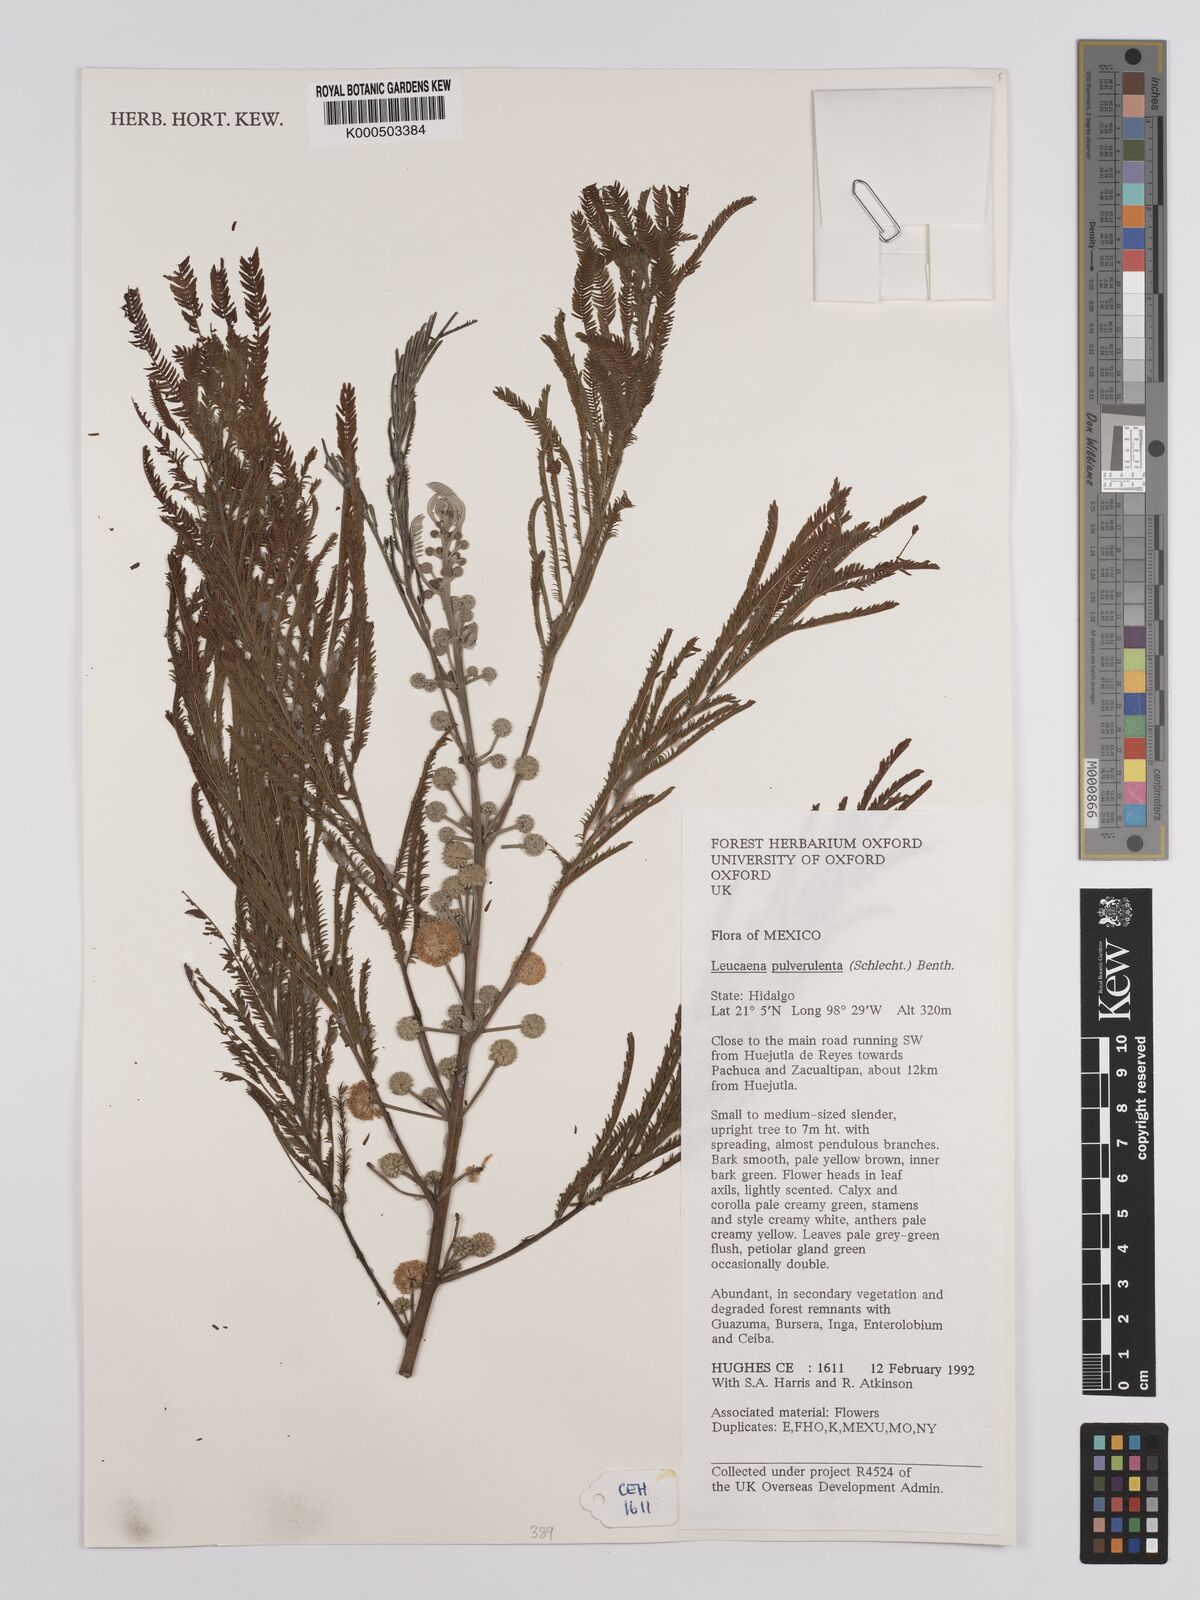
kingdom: Plantae
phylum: Tracheophyta
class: Magnoliopsida
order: Fabales
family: Fabaceae
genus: Leucaena
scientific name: Leucaena pulverulenta
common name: Great leadtree
